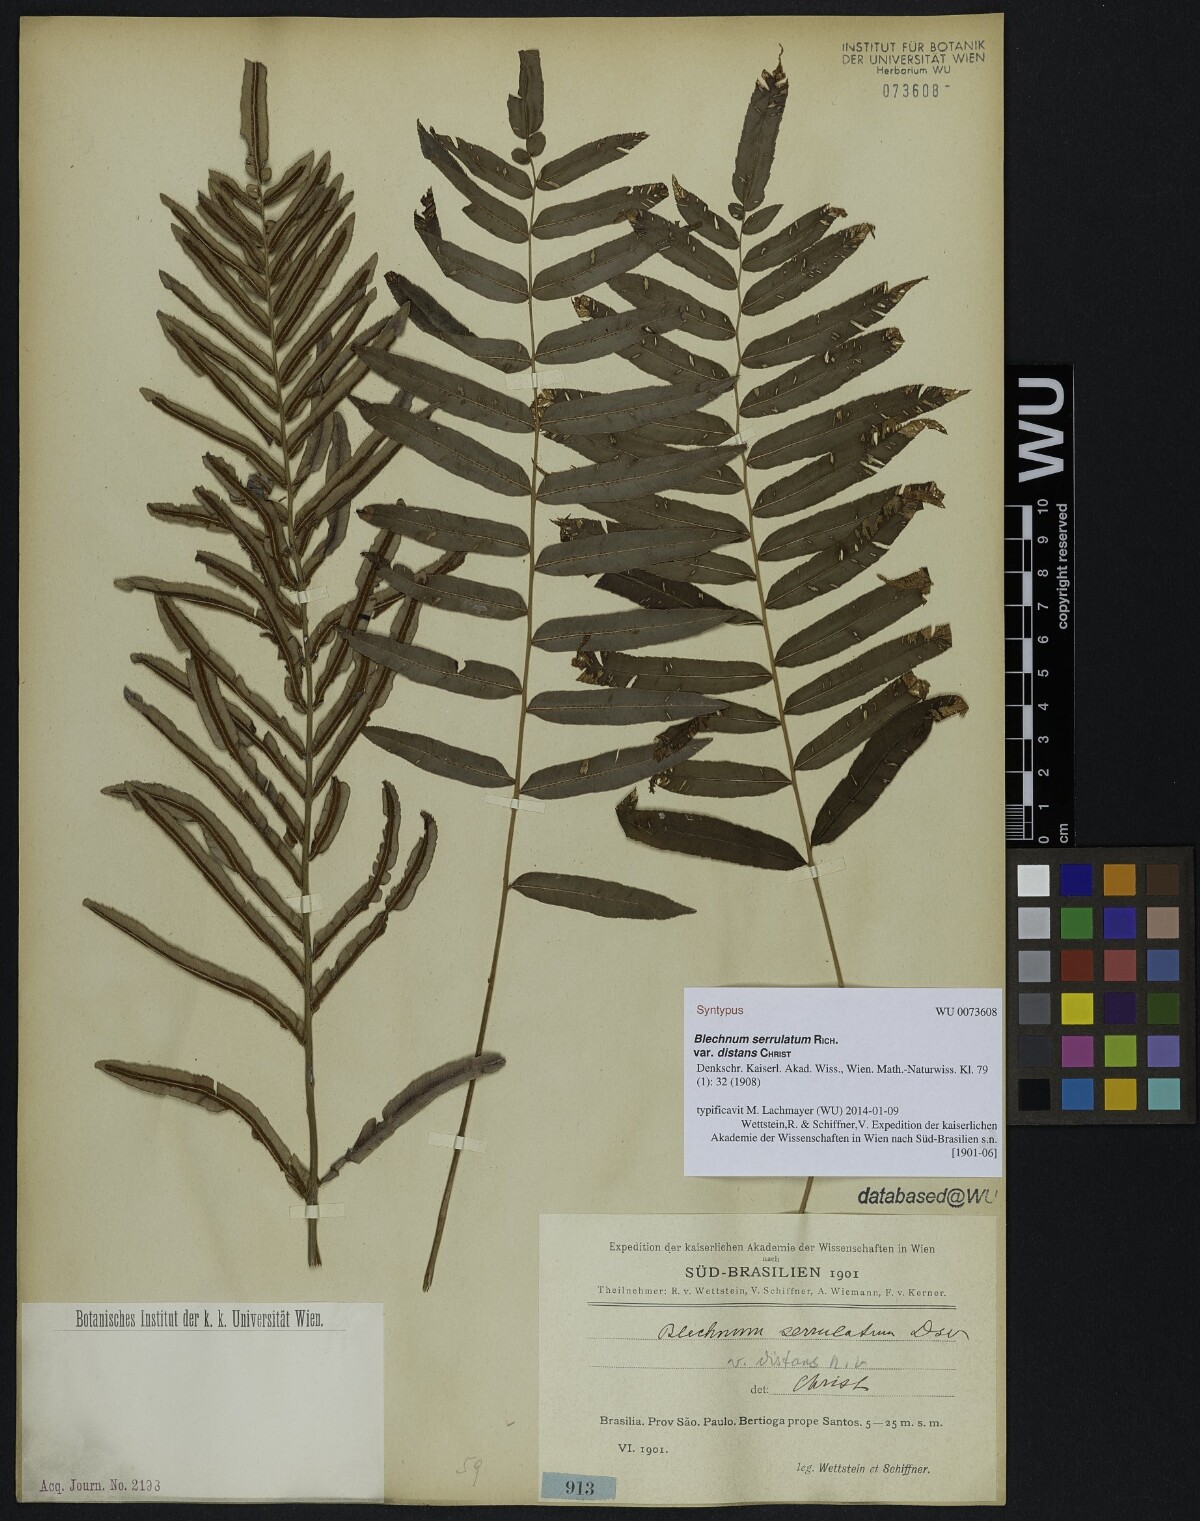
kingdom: Plantae
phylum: Tracheophyta
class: Polypodiopsida
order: Polypodiales
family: Blechnaceae
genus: Telmatoblechnum
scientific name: Telmatoblechnum serrulatum
